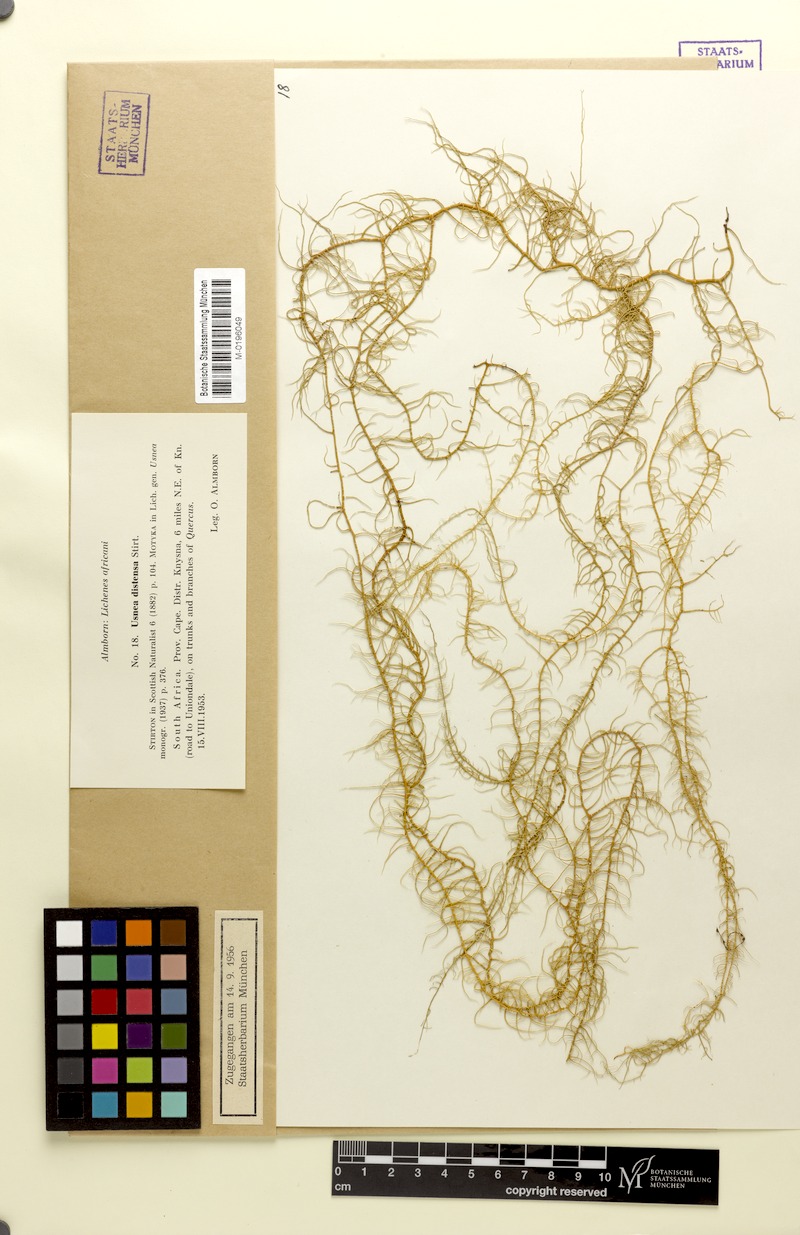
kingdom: Fungi
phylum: Ascomycota
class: Lecanoromycetes
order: Lecanorales
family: Parmeliaceae
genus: Usnea
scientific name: Usnea distensa
